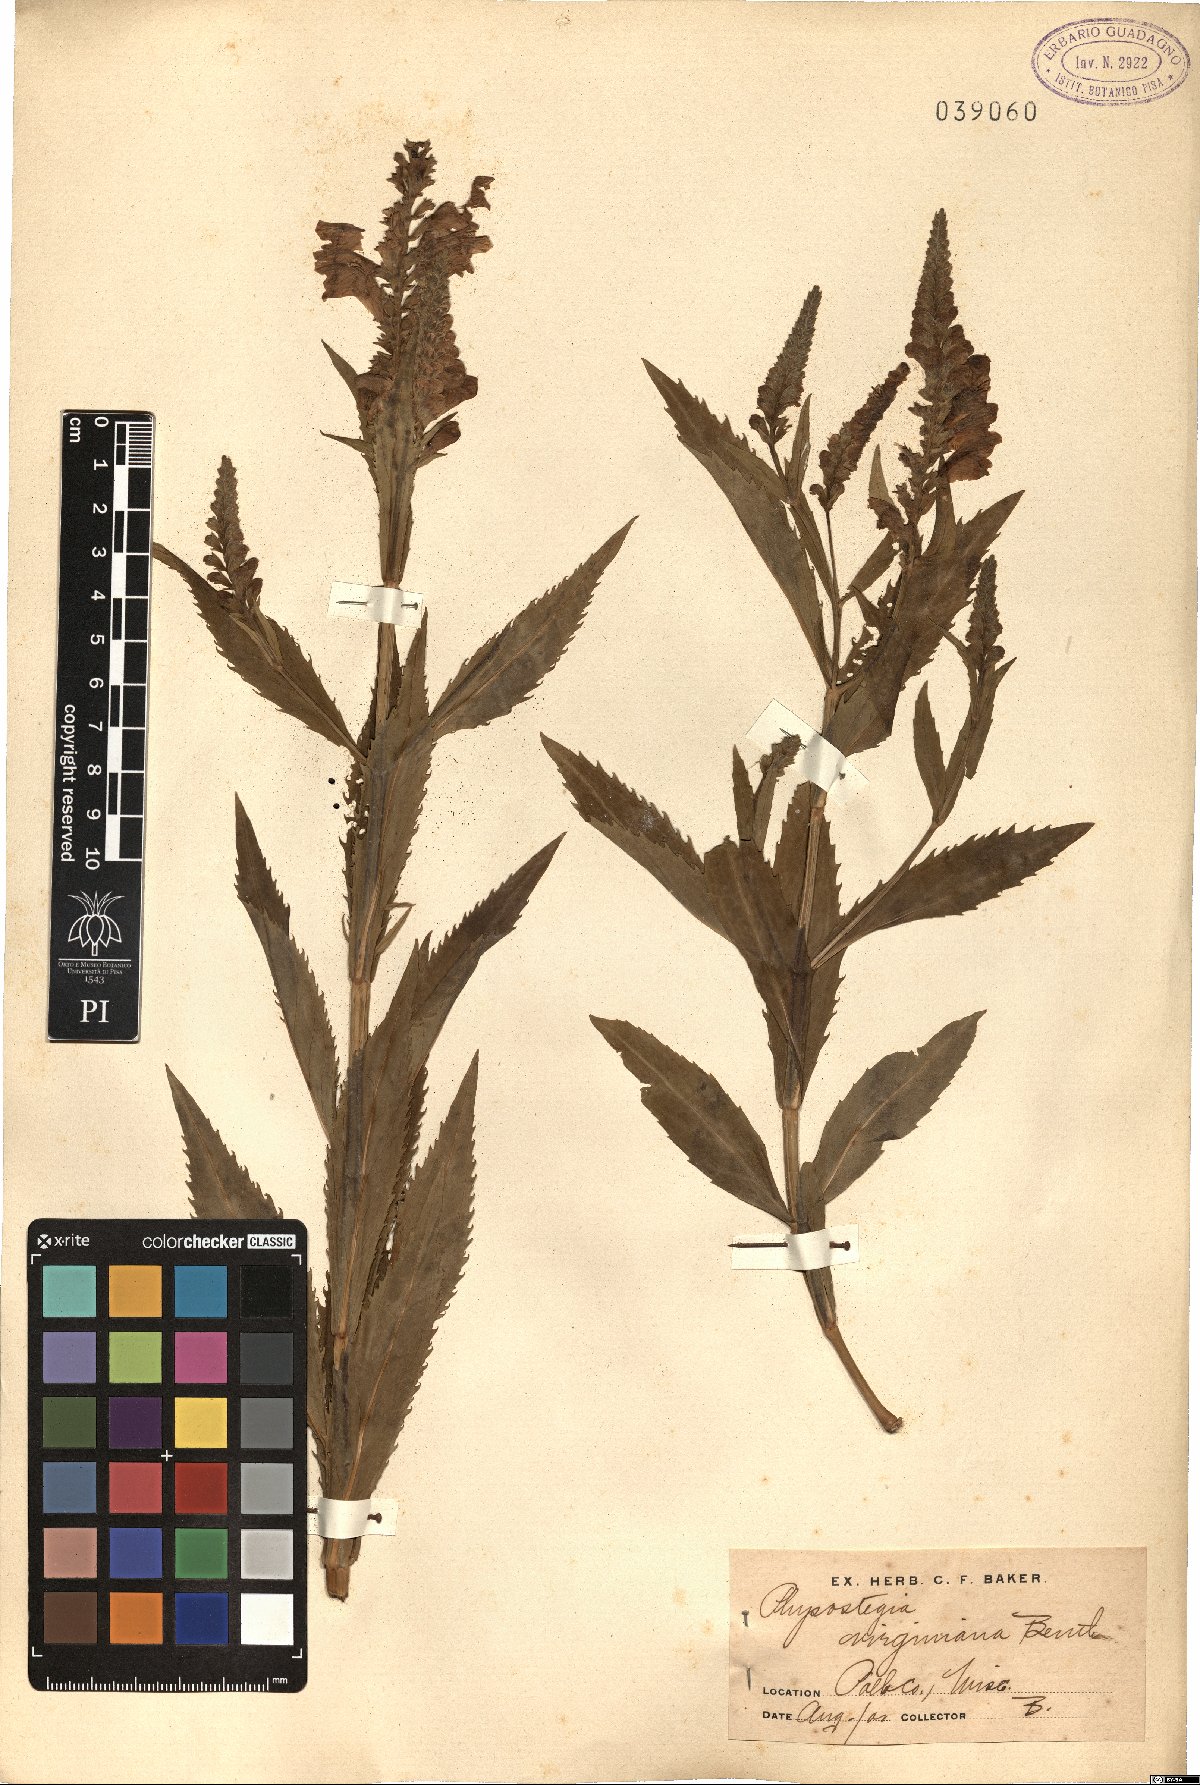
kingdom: Plantae
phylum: Tracheophyta
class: Magnoliopsida
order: Lamiales
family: Lamiaceae
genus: Physostegia
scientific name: Physostegia virginiana
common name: Obedient-plant
